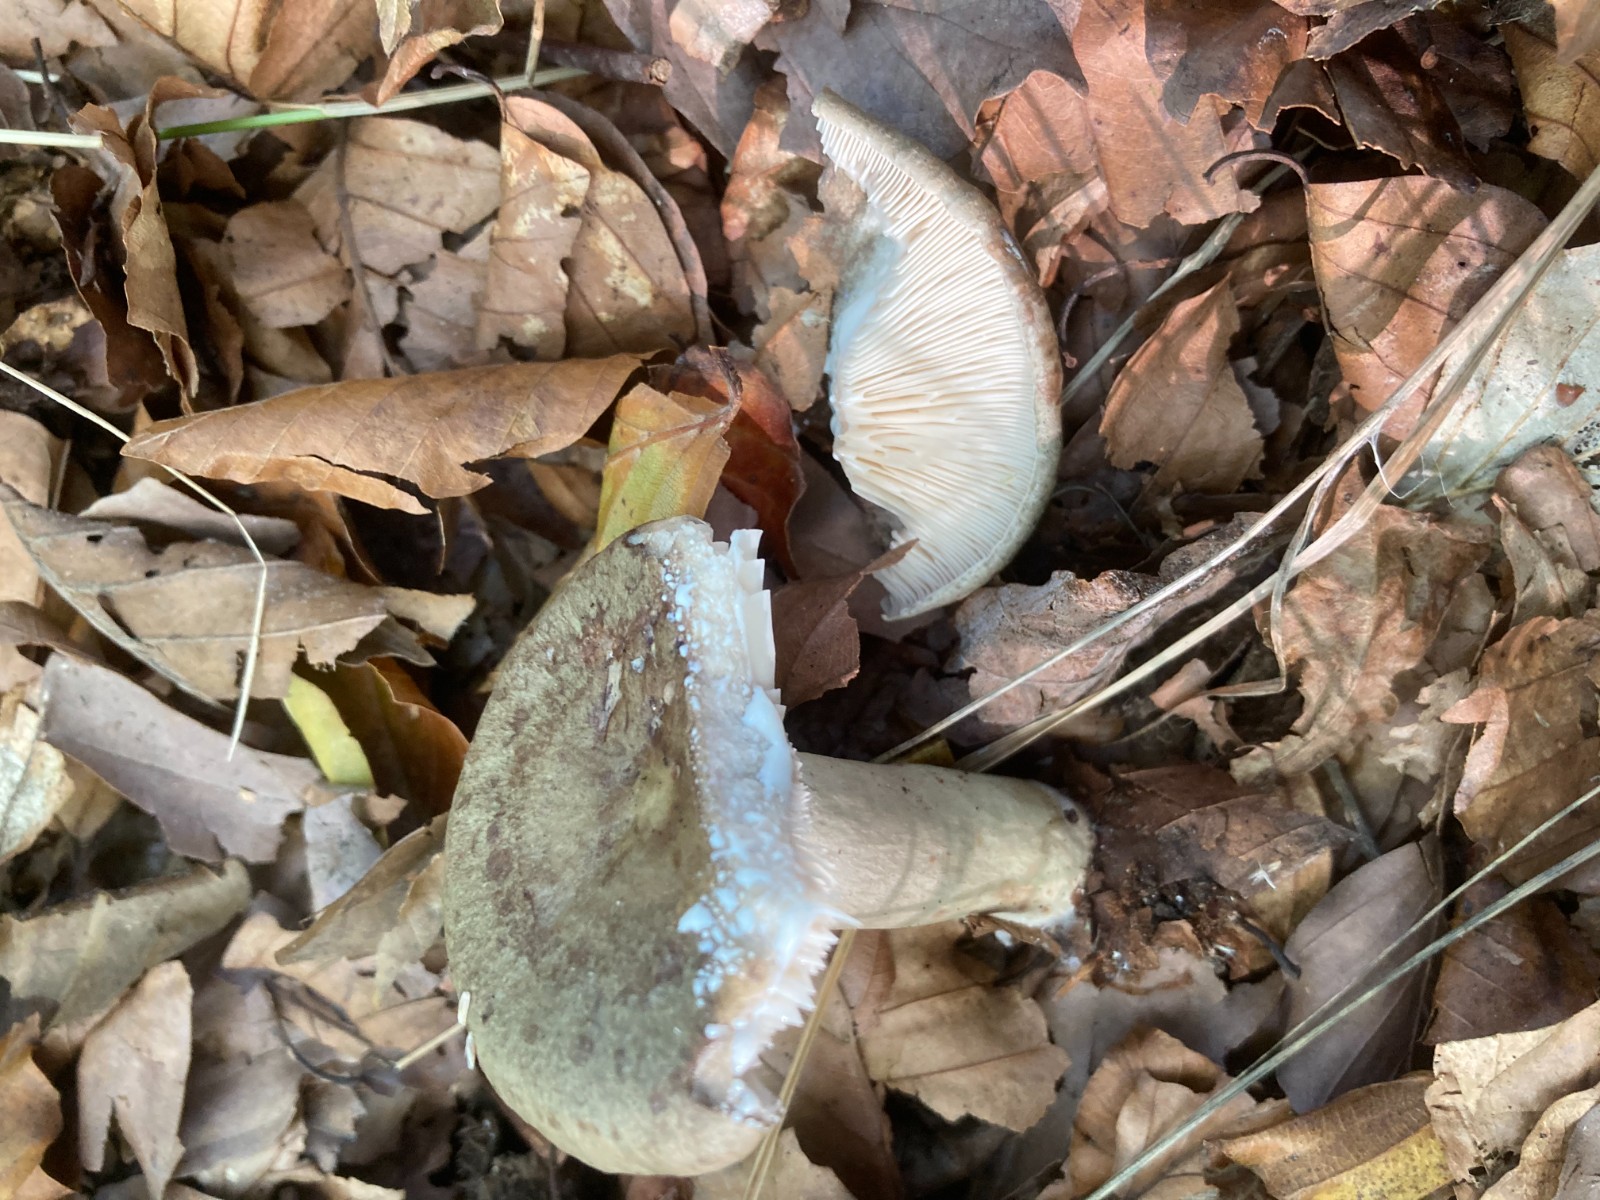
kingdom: Fungi
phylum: Basidiomycota
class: Agaricomycetes
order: Russulales
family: Russulaceae
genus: Lactarius
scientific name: Lactarius blennius
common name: dråbeplettet mælkehat
